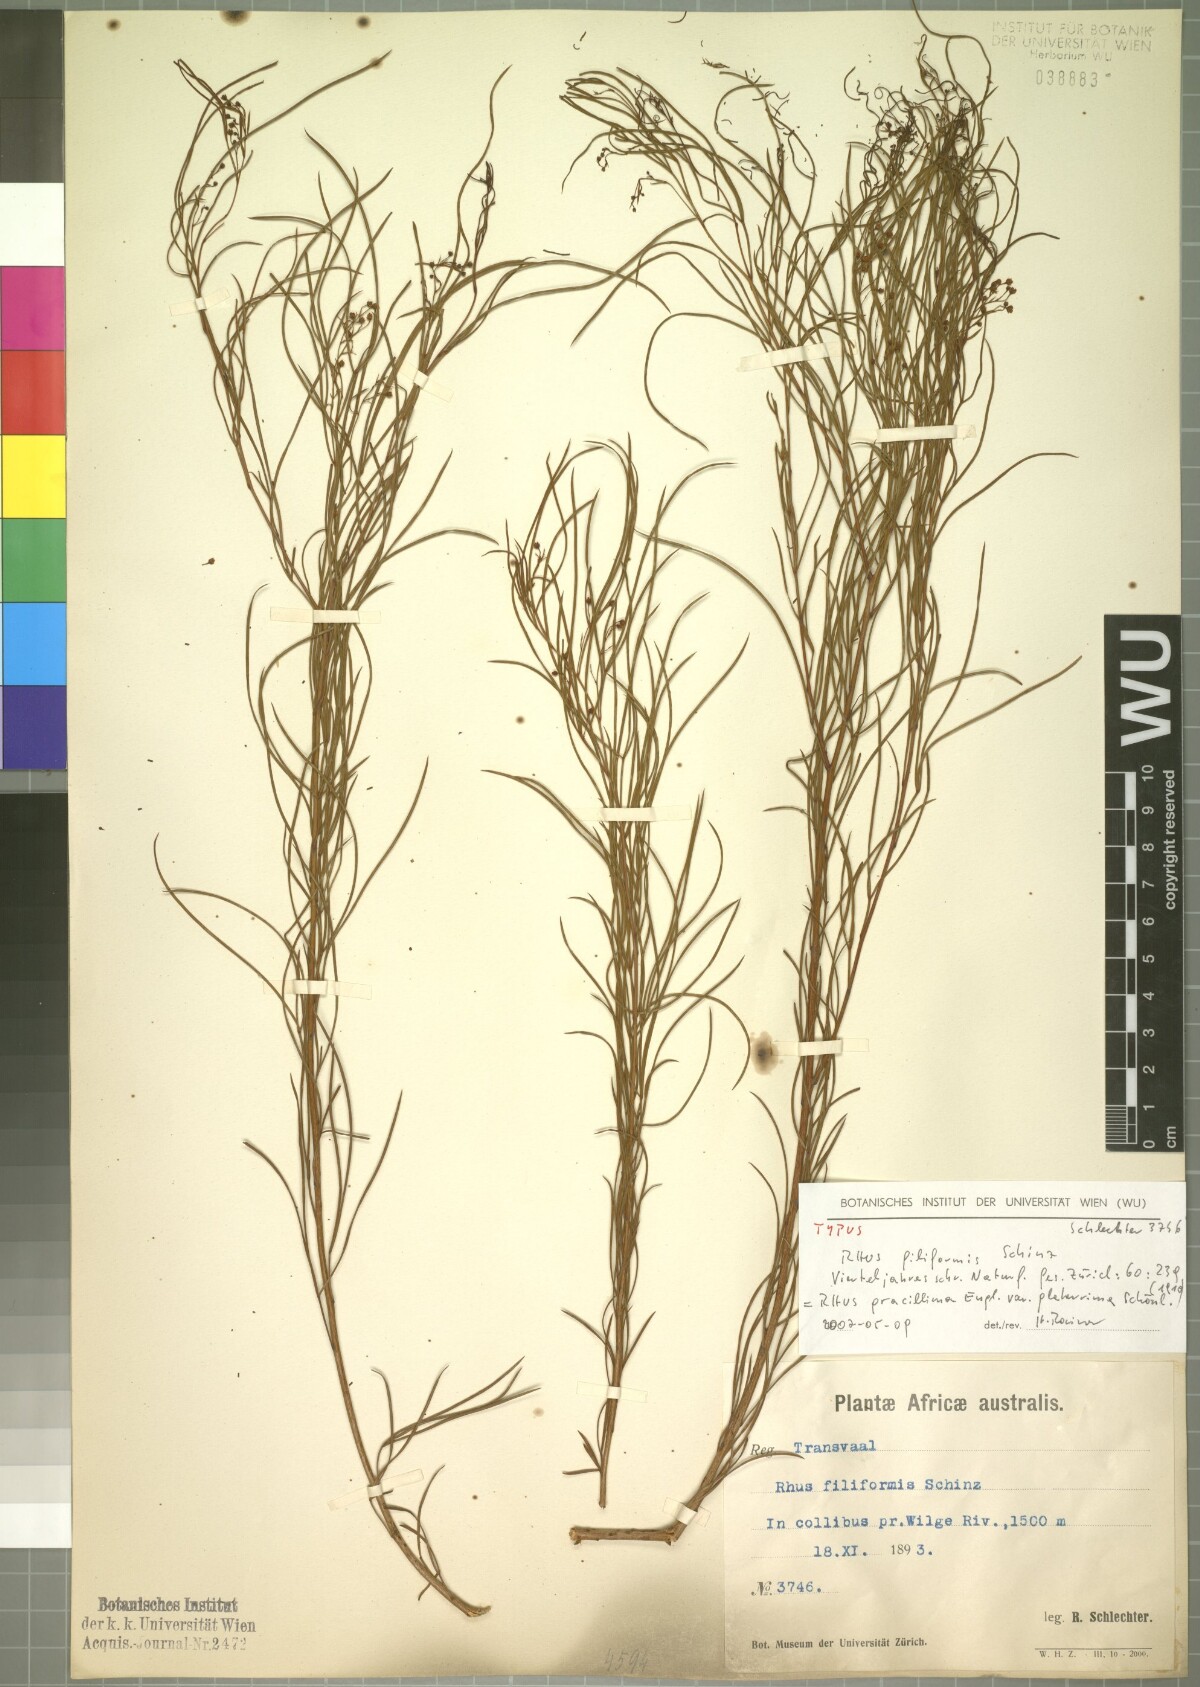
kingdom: Plantae
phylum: Tracheophyta
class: Magnoliopsida
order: Sapindales
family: Anacardiaceae
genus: Searsia
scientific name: Searsia gracillima
